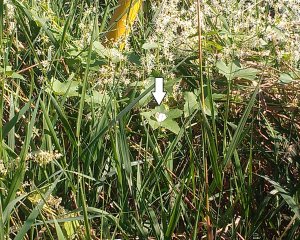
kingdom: Animalia
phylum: Arthropoda
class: Insecta
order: Lepidoptera
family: Pieridae
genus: Pieris
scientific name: Pieris rapae
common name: Cabbage White
